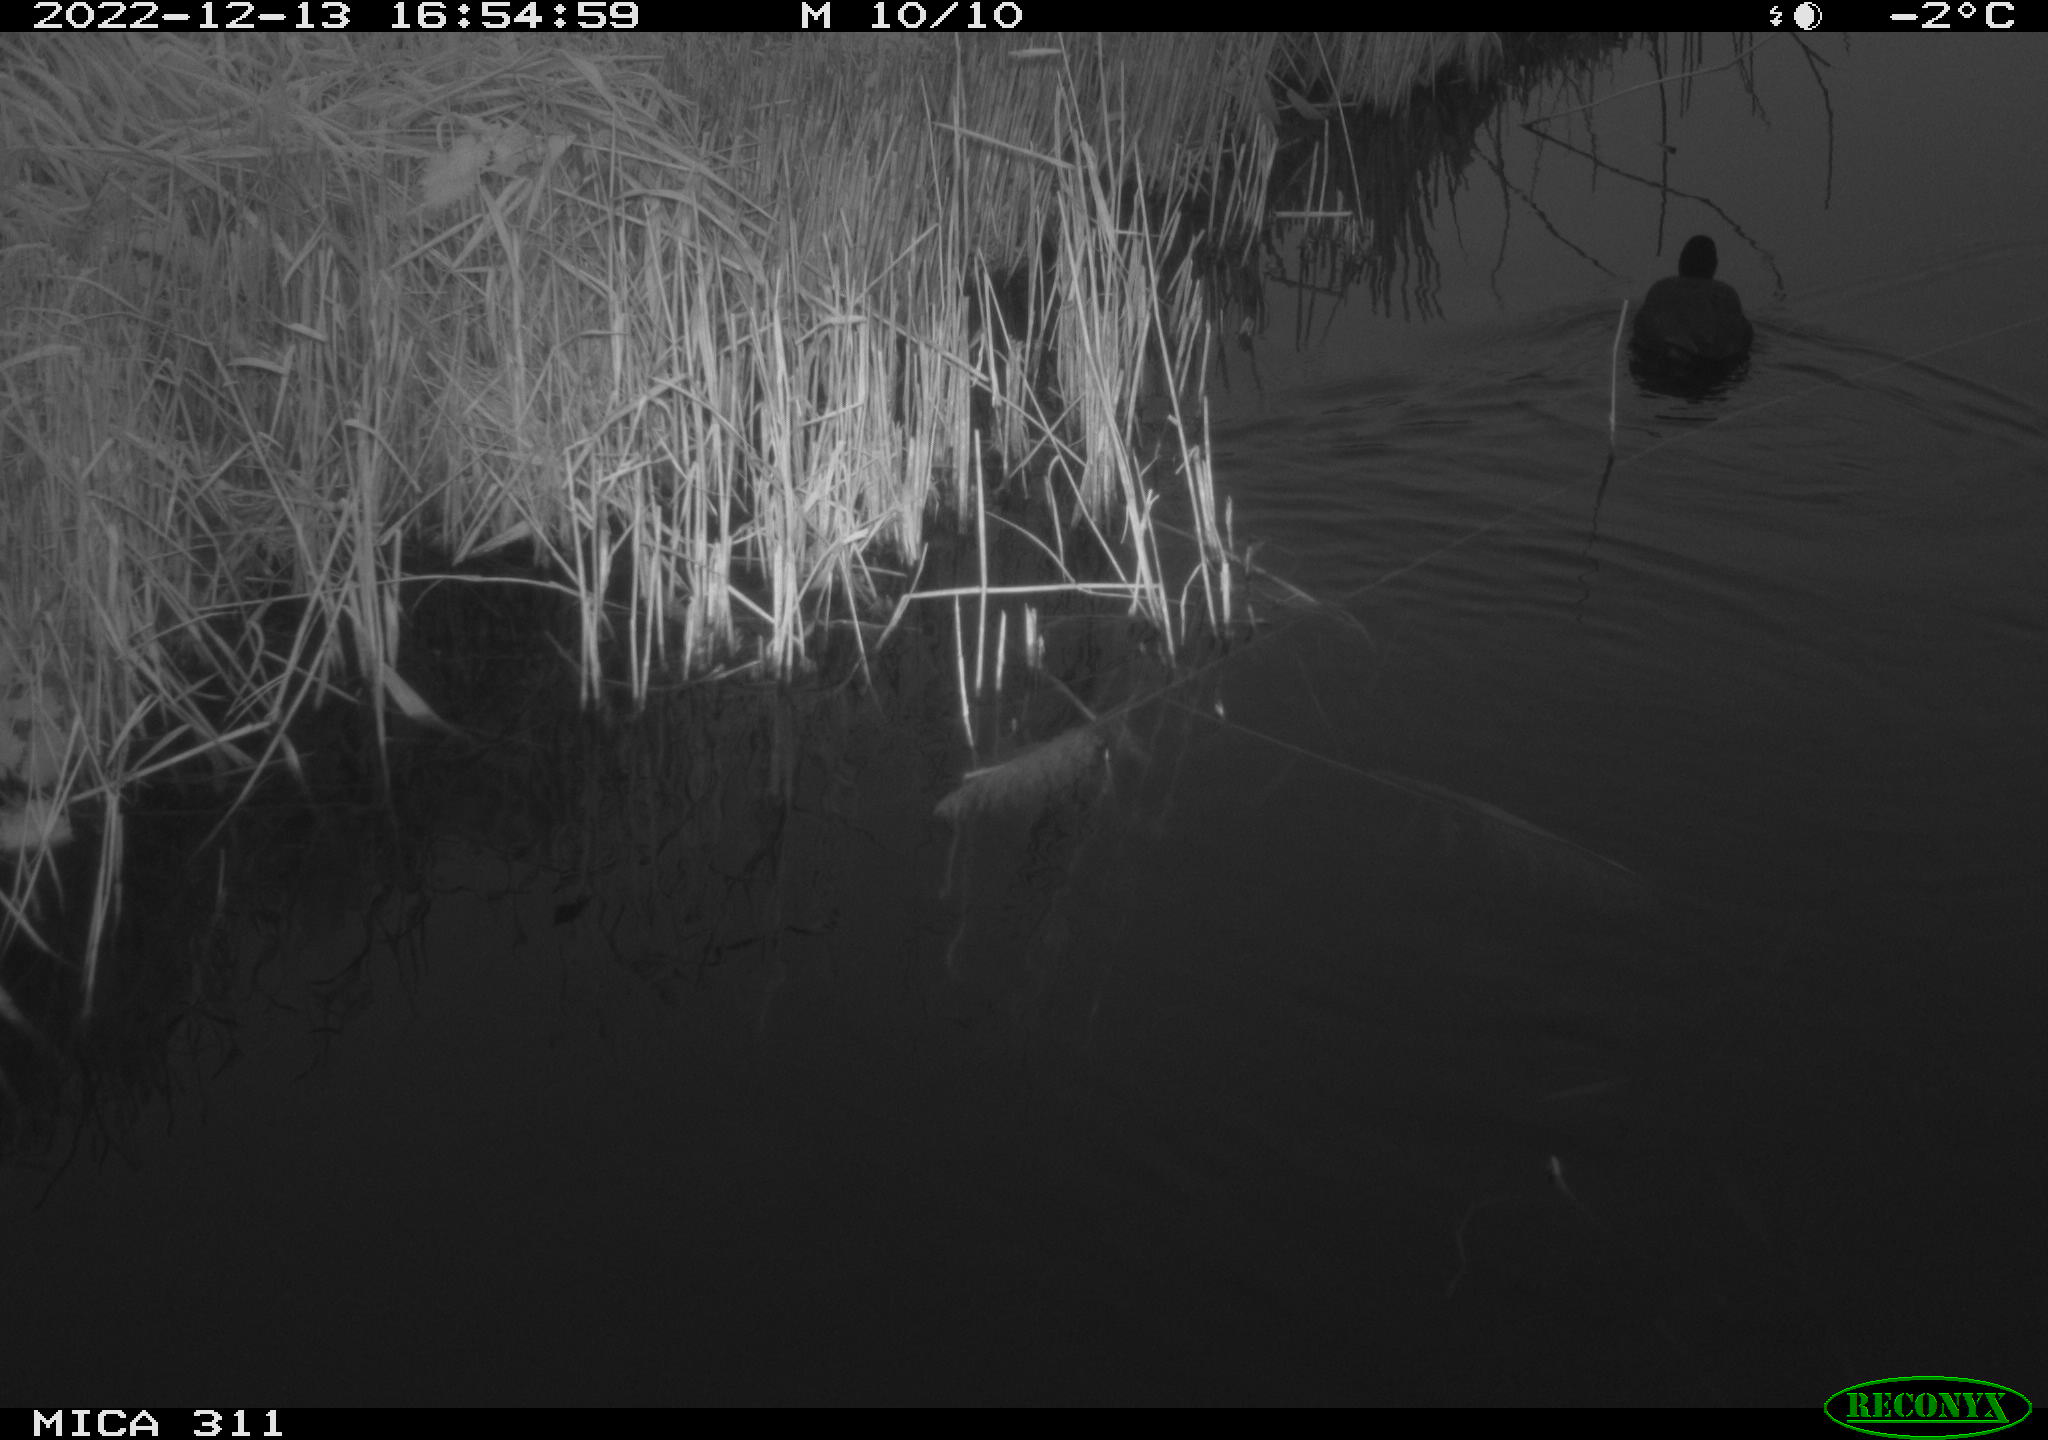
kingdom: Animalia
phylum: Chordata
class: Aves
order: Gruiformes
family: Rallidae
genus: Fulica
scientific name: Fulica atra
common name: Eurasian coot
